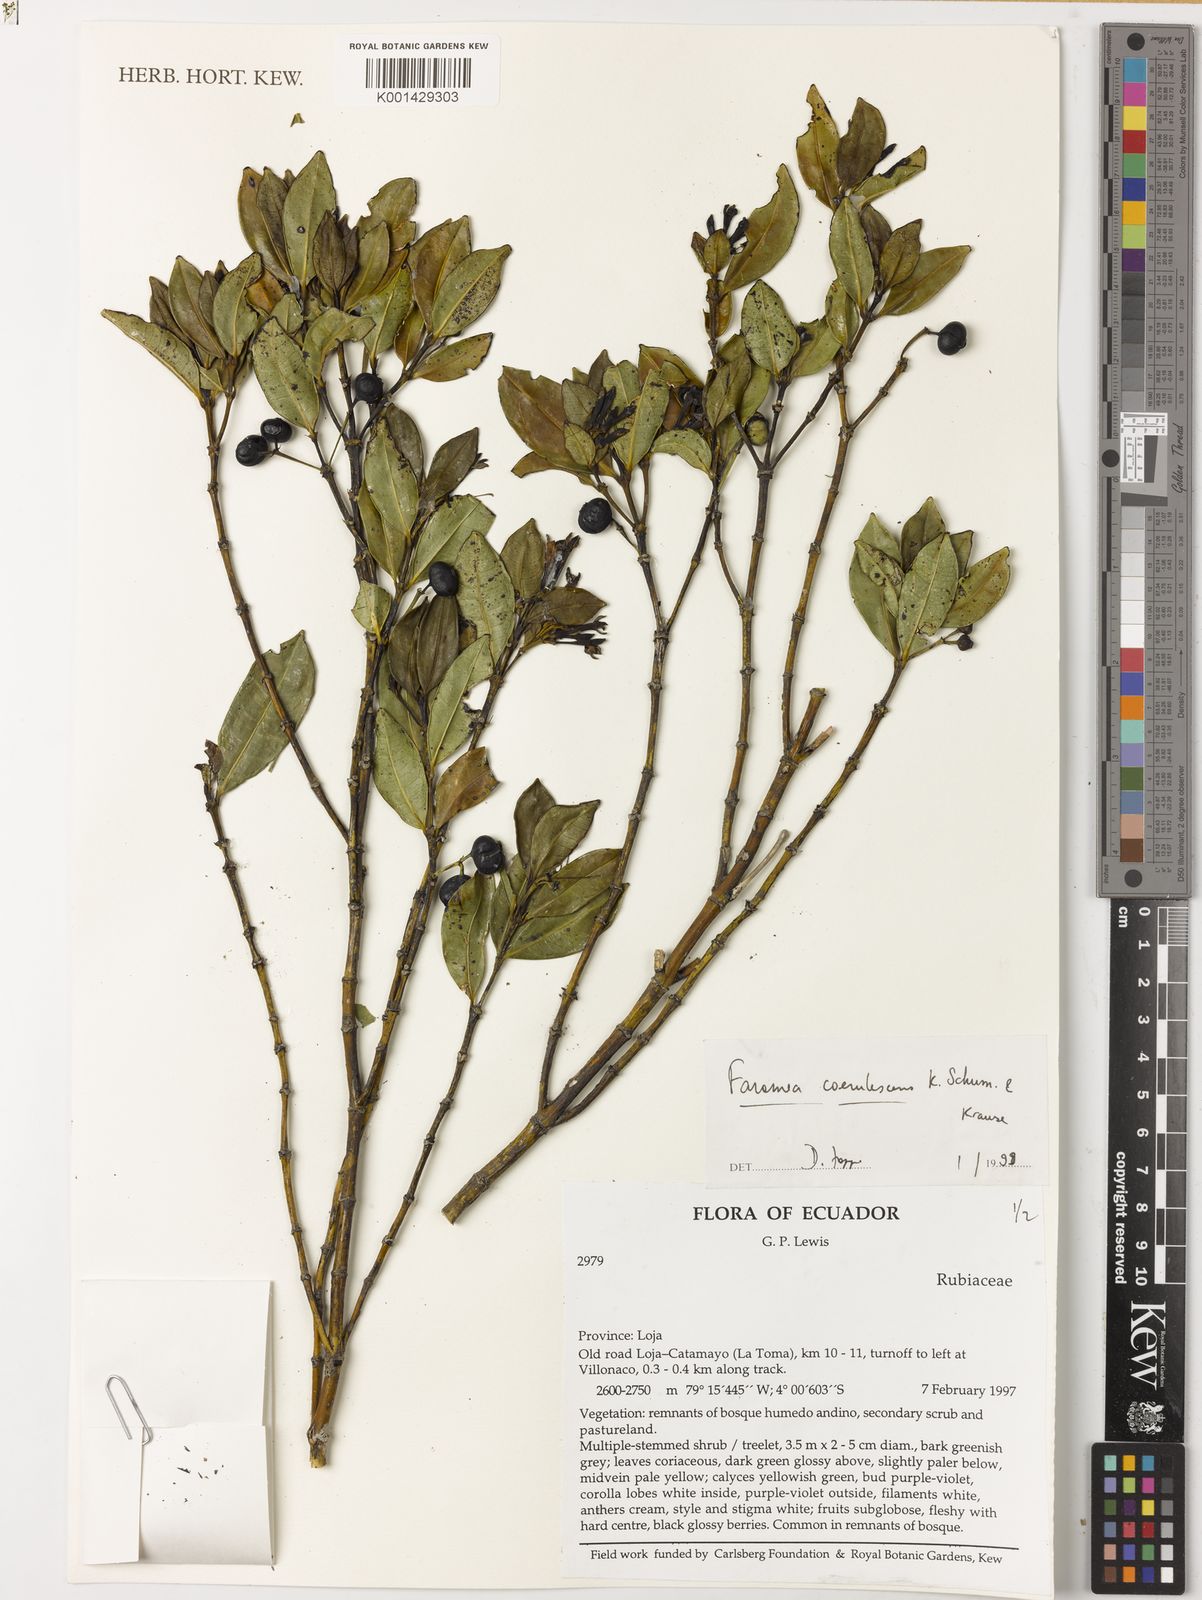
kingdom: Plantae
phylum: Tracheophyta
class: Magnoliopsida
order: Gentianales
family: Rubiaceae
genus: Faramea
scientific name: Faramea coerulescens
